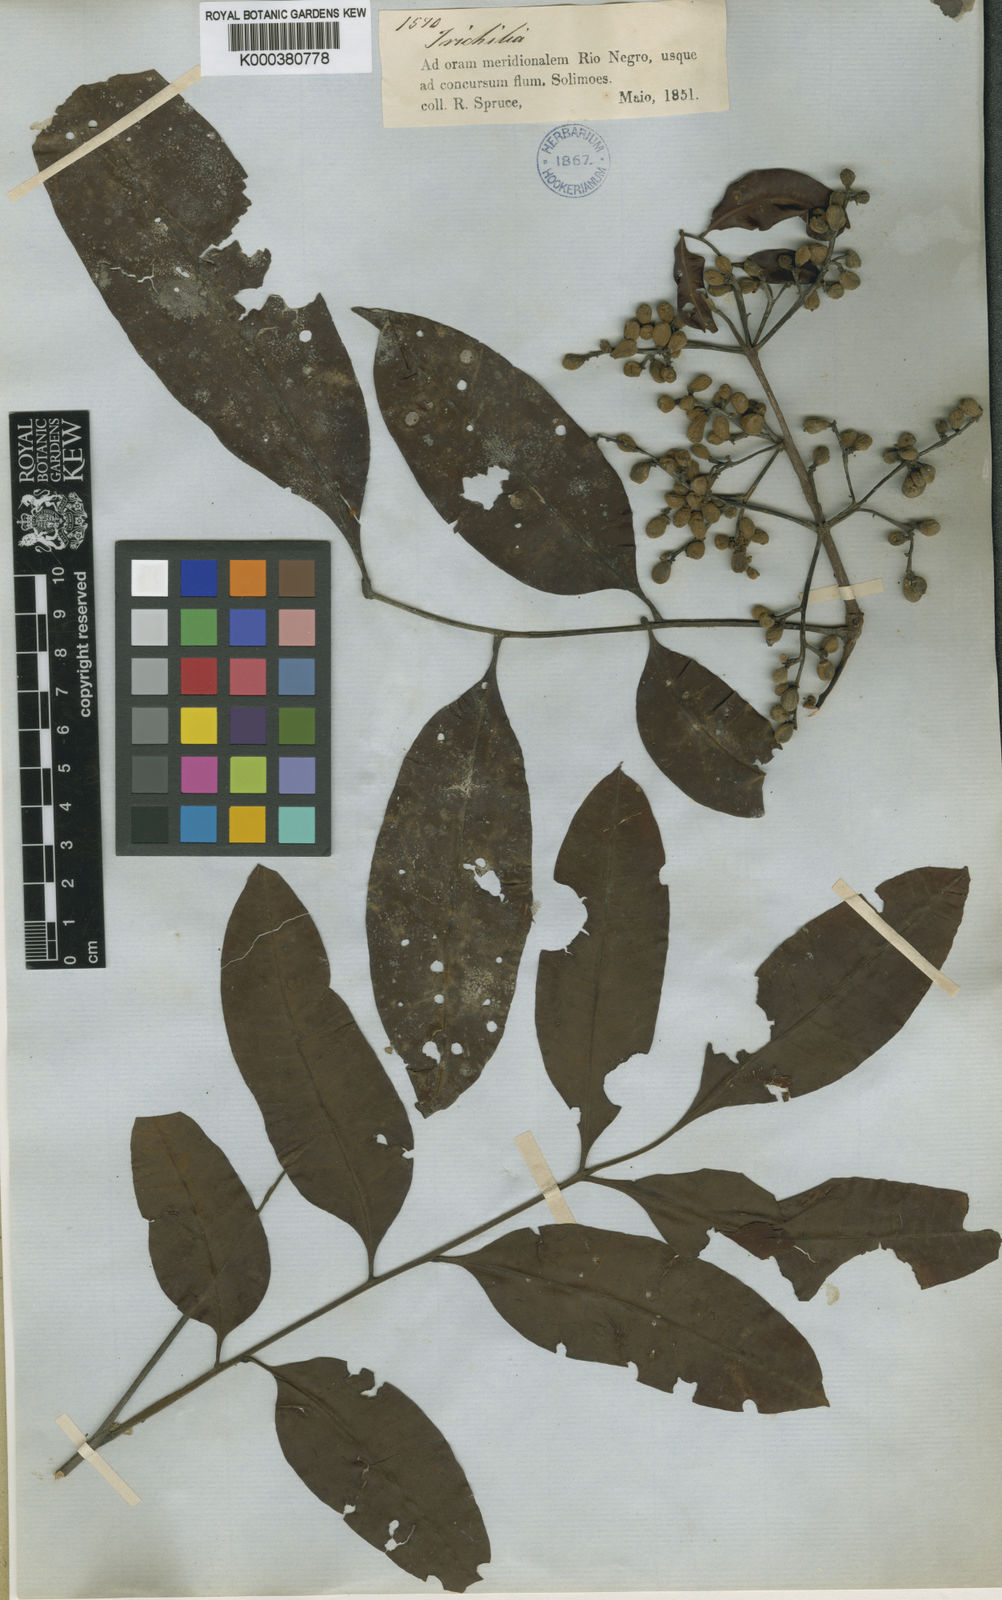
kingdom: Plantae
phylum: Tracheophyta
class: Magnoliopsida
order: Sapindales
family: Meliaceae
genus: Trichilia
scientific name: Trichilia rubra
